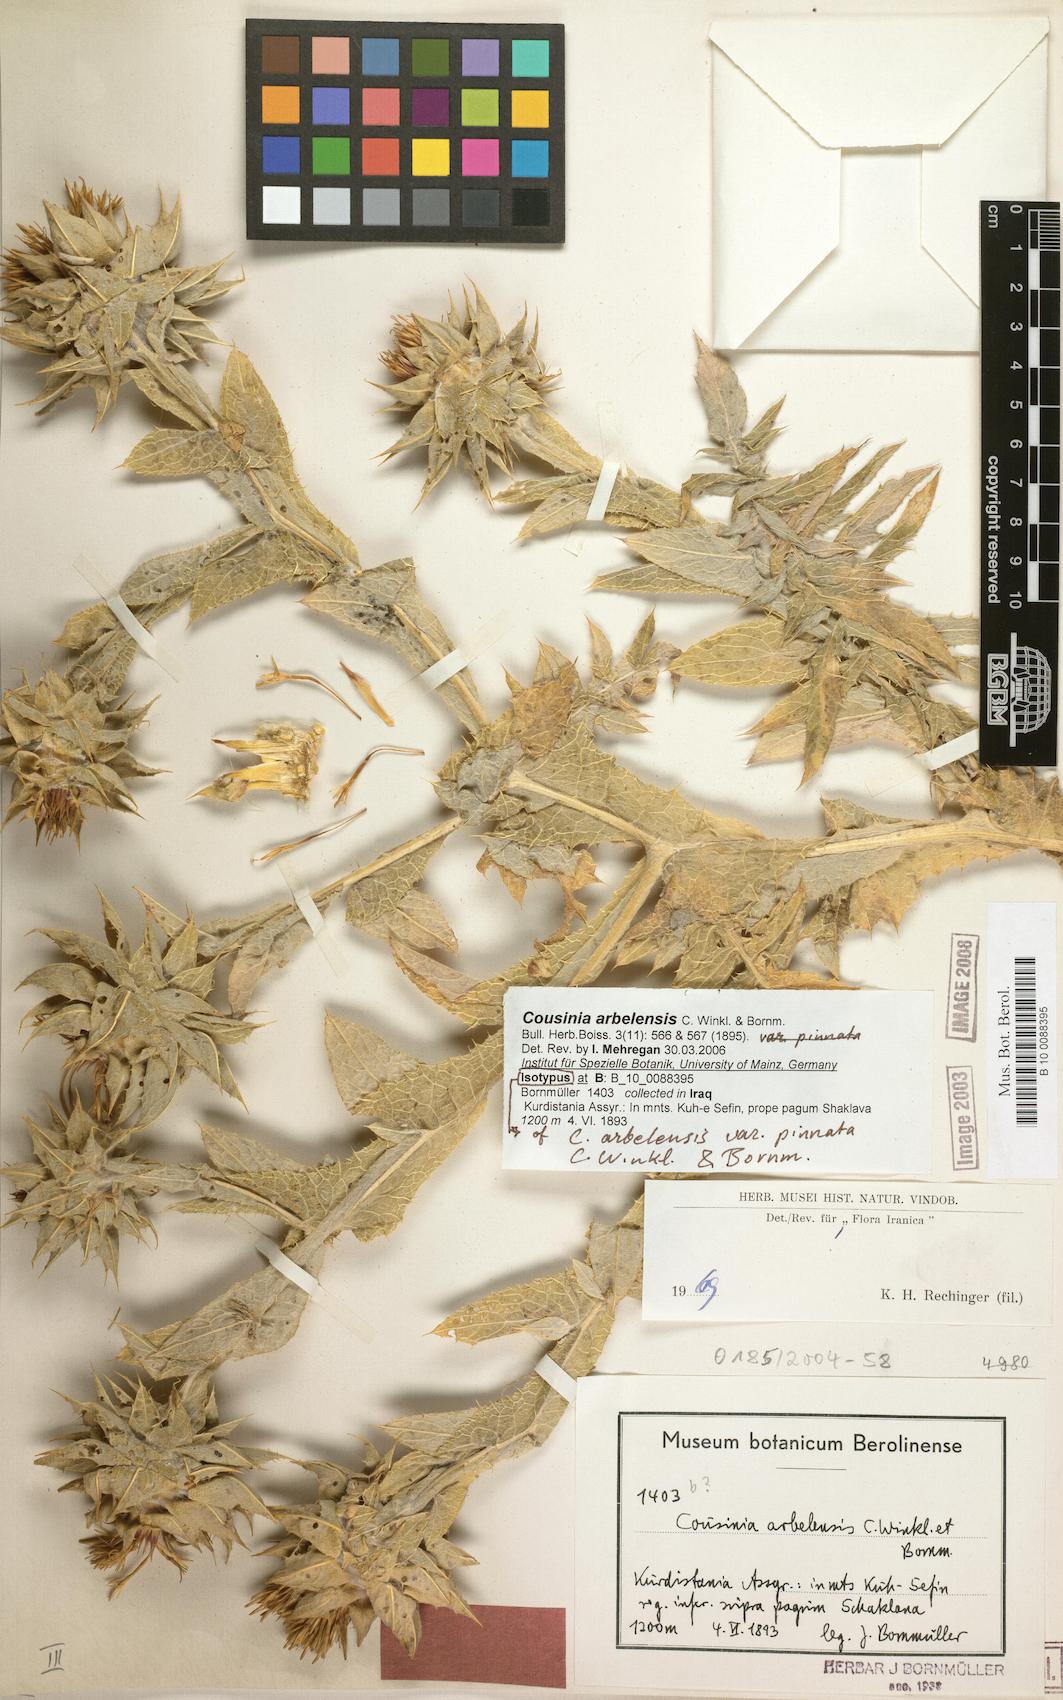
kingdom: Plantae
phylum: Tracheophyta
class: Magnoliopsida
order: Asterales
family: Asteraceae
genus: Cousinia
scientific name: Cousinia aintabensis
